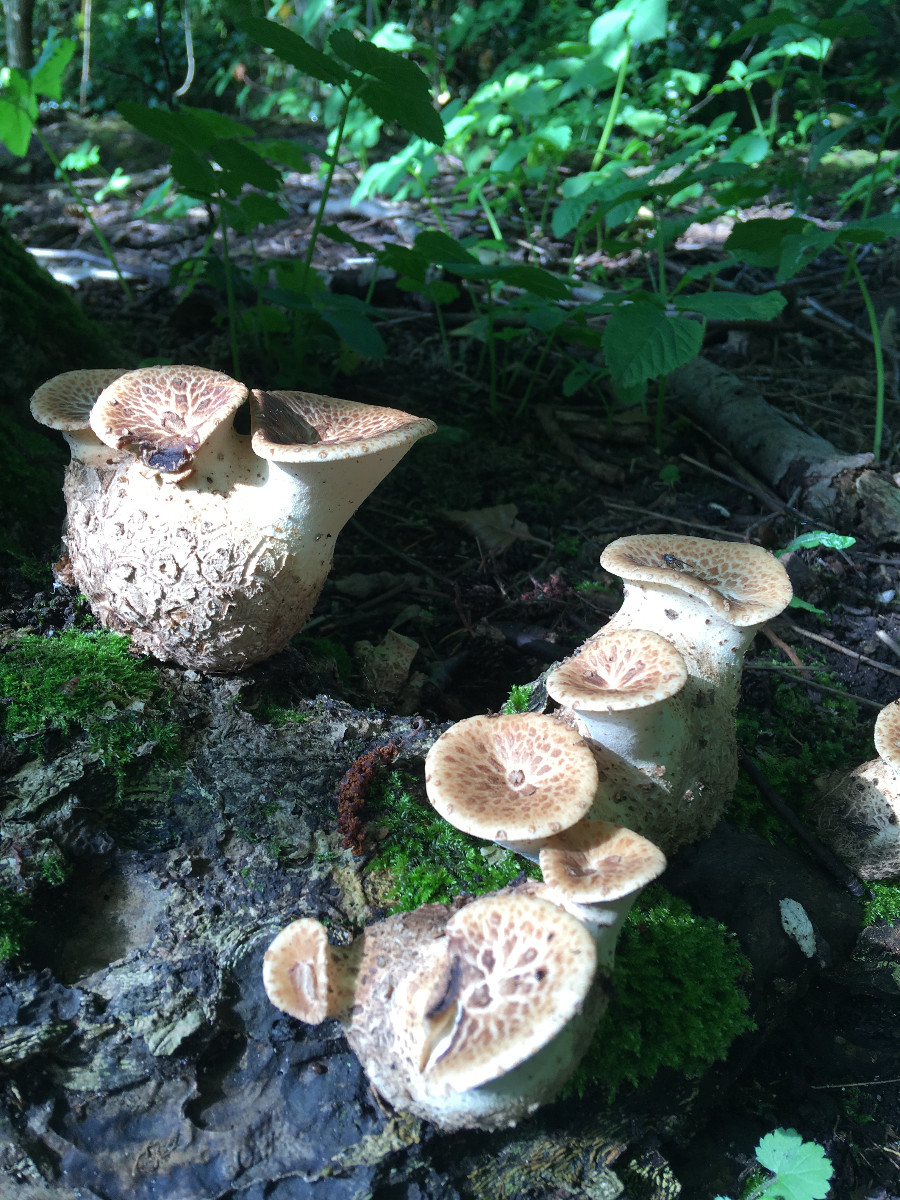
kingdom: Fungi
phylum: Basidiomycota
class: Agaricomycetes
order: Polyporales
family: Polyporaceae
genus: Cerioporus
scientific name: Cerioporus squamosus
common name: skællet stilkporesvamp
